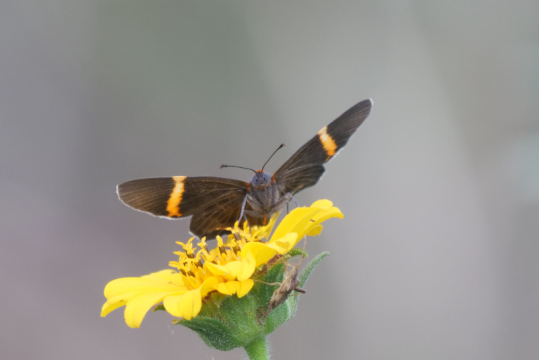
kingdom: Animalia
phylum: Arthropoda
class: Insecta
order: Lepidoptera
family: Riodinidae
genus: Riodina
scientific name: Riodina lysippoides
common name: Little Dancer Metalmark
